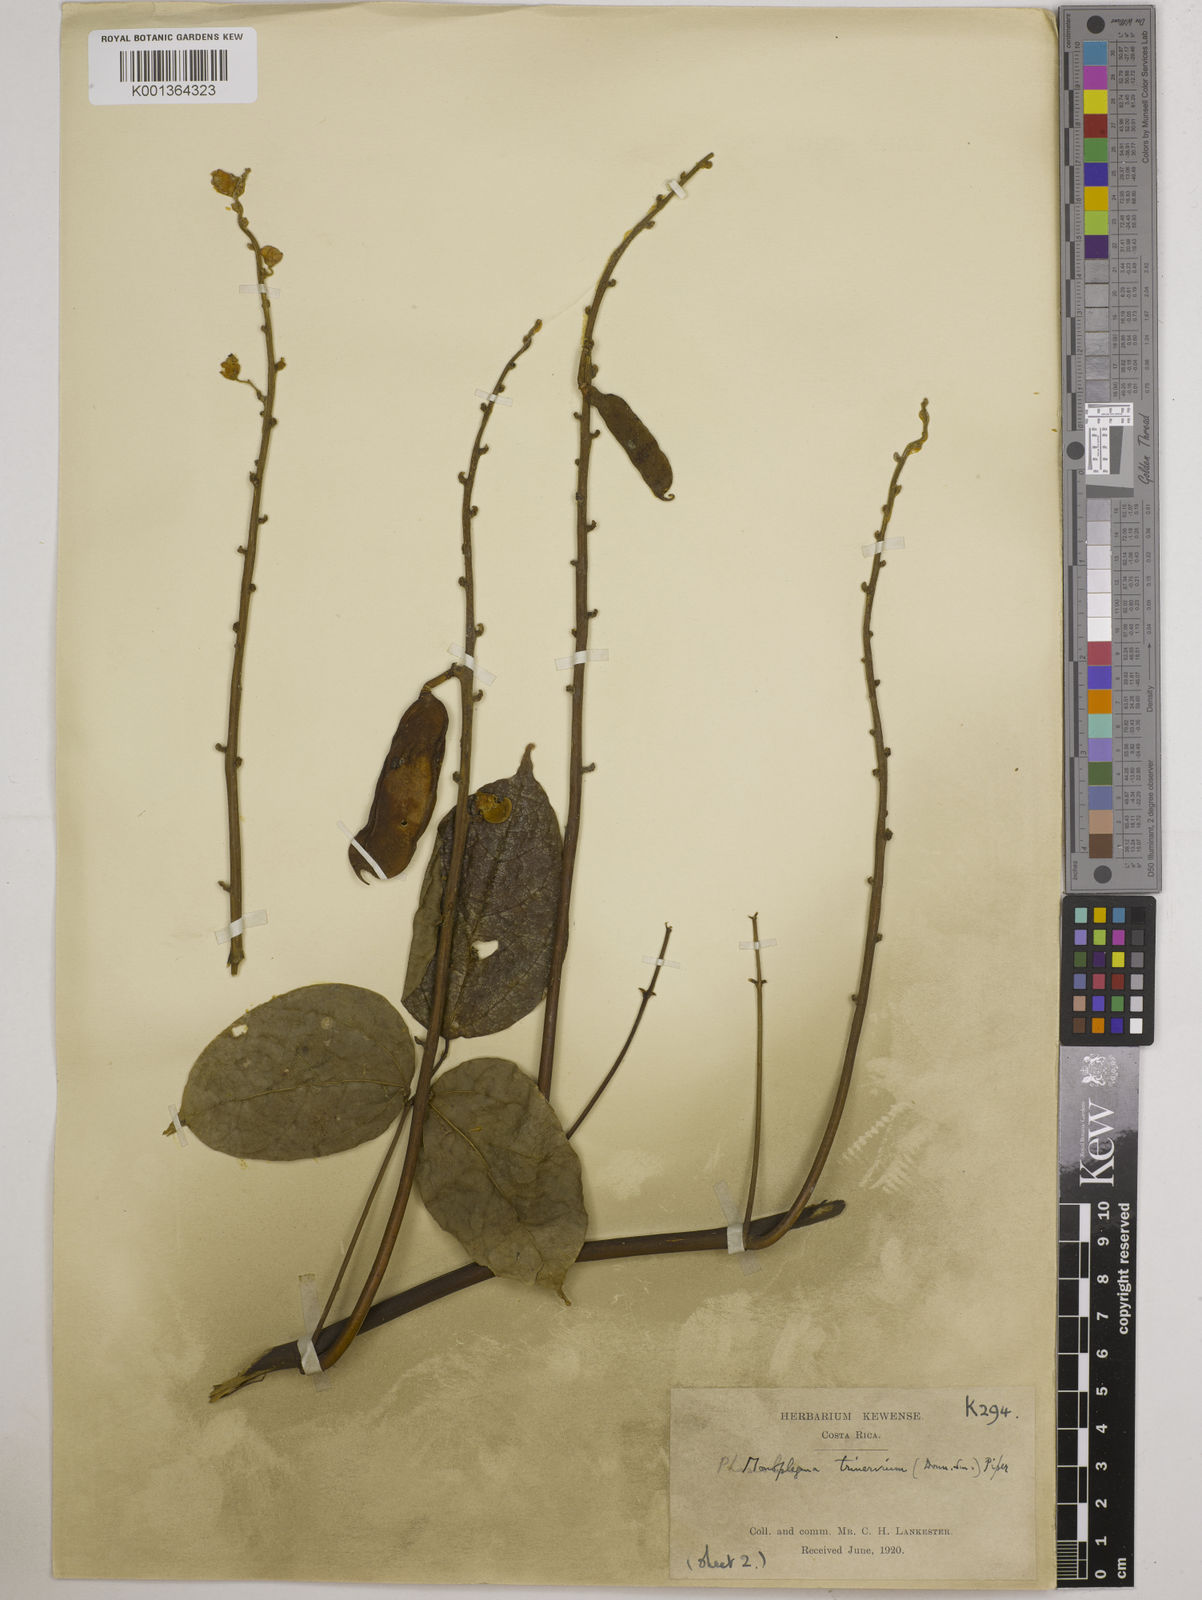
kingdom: Plantae
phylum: Tracheophyta
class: Magnoliopsida
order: Fabales
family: Fabaceae
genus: Oxyrhynchus
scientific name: Oxyrhynchus trinervius
